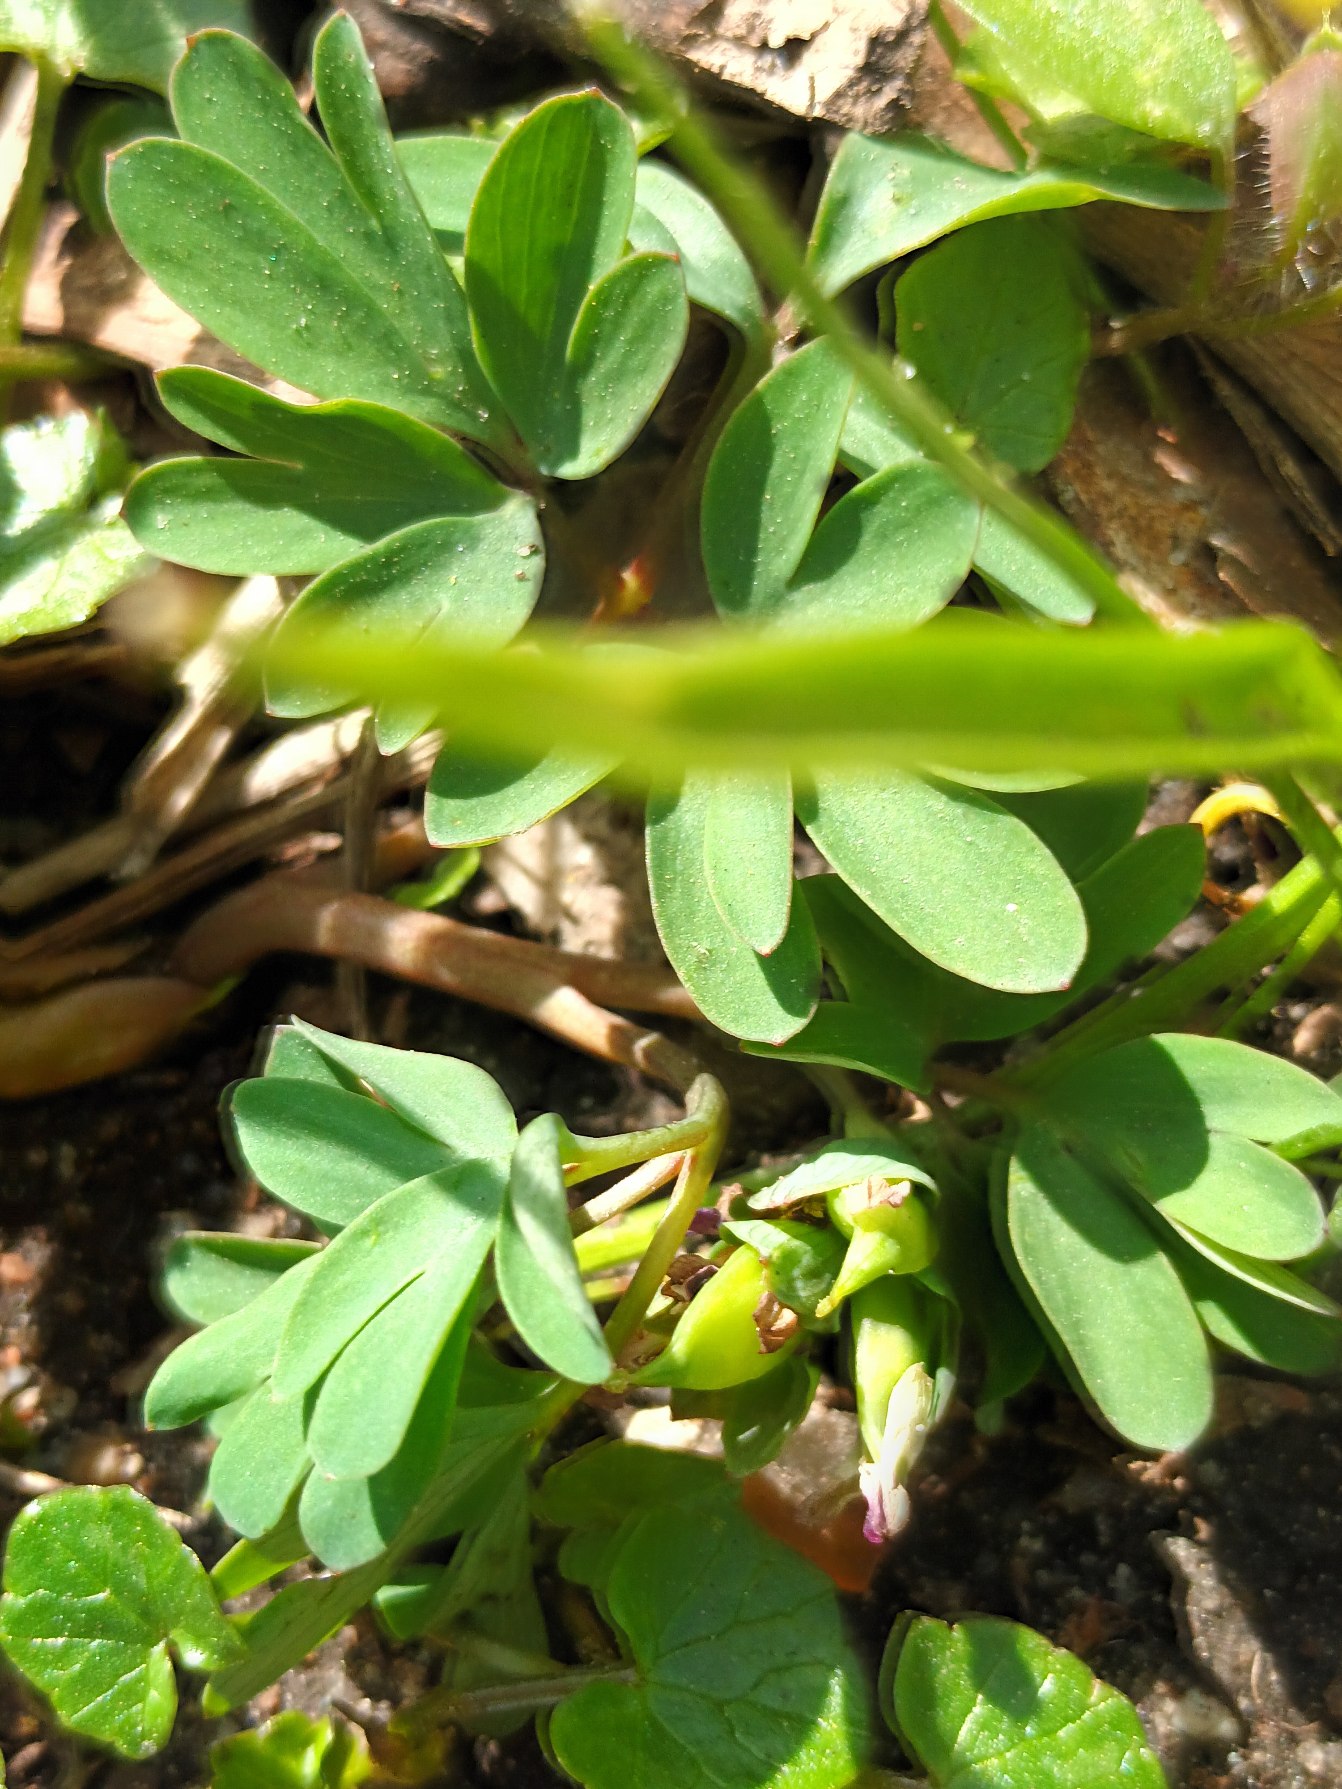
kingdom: Plantae
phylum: Tracheophyta
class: Magnoliopsida
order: Ranunculales
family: Papaveraceae
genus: Corydalis
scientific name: Corydalis intermedia
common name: Liden lærkespore
